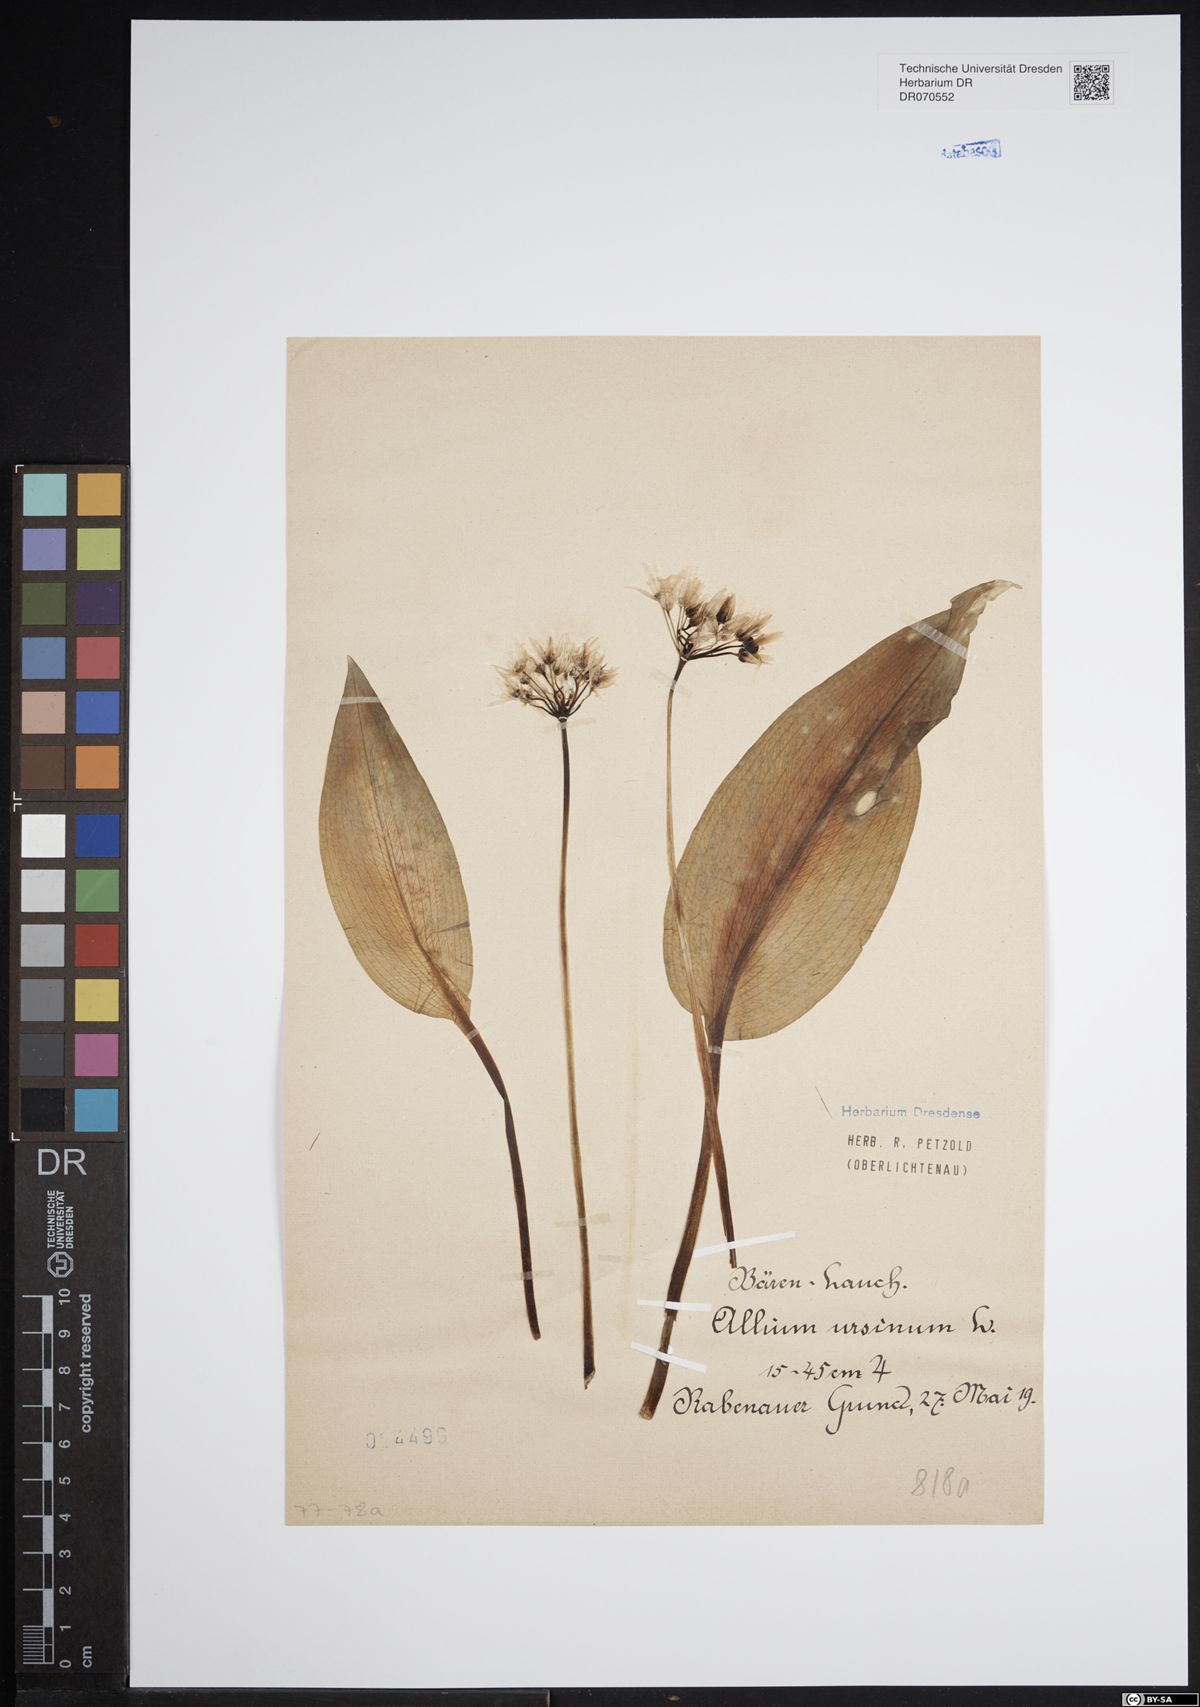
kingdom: Plantae
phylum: Tracheophyta
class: Liliopsida
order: Asparagales
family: Amaryllidaceae
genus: Allium
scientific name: Allium ursinum
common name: Ramsons
